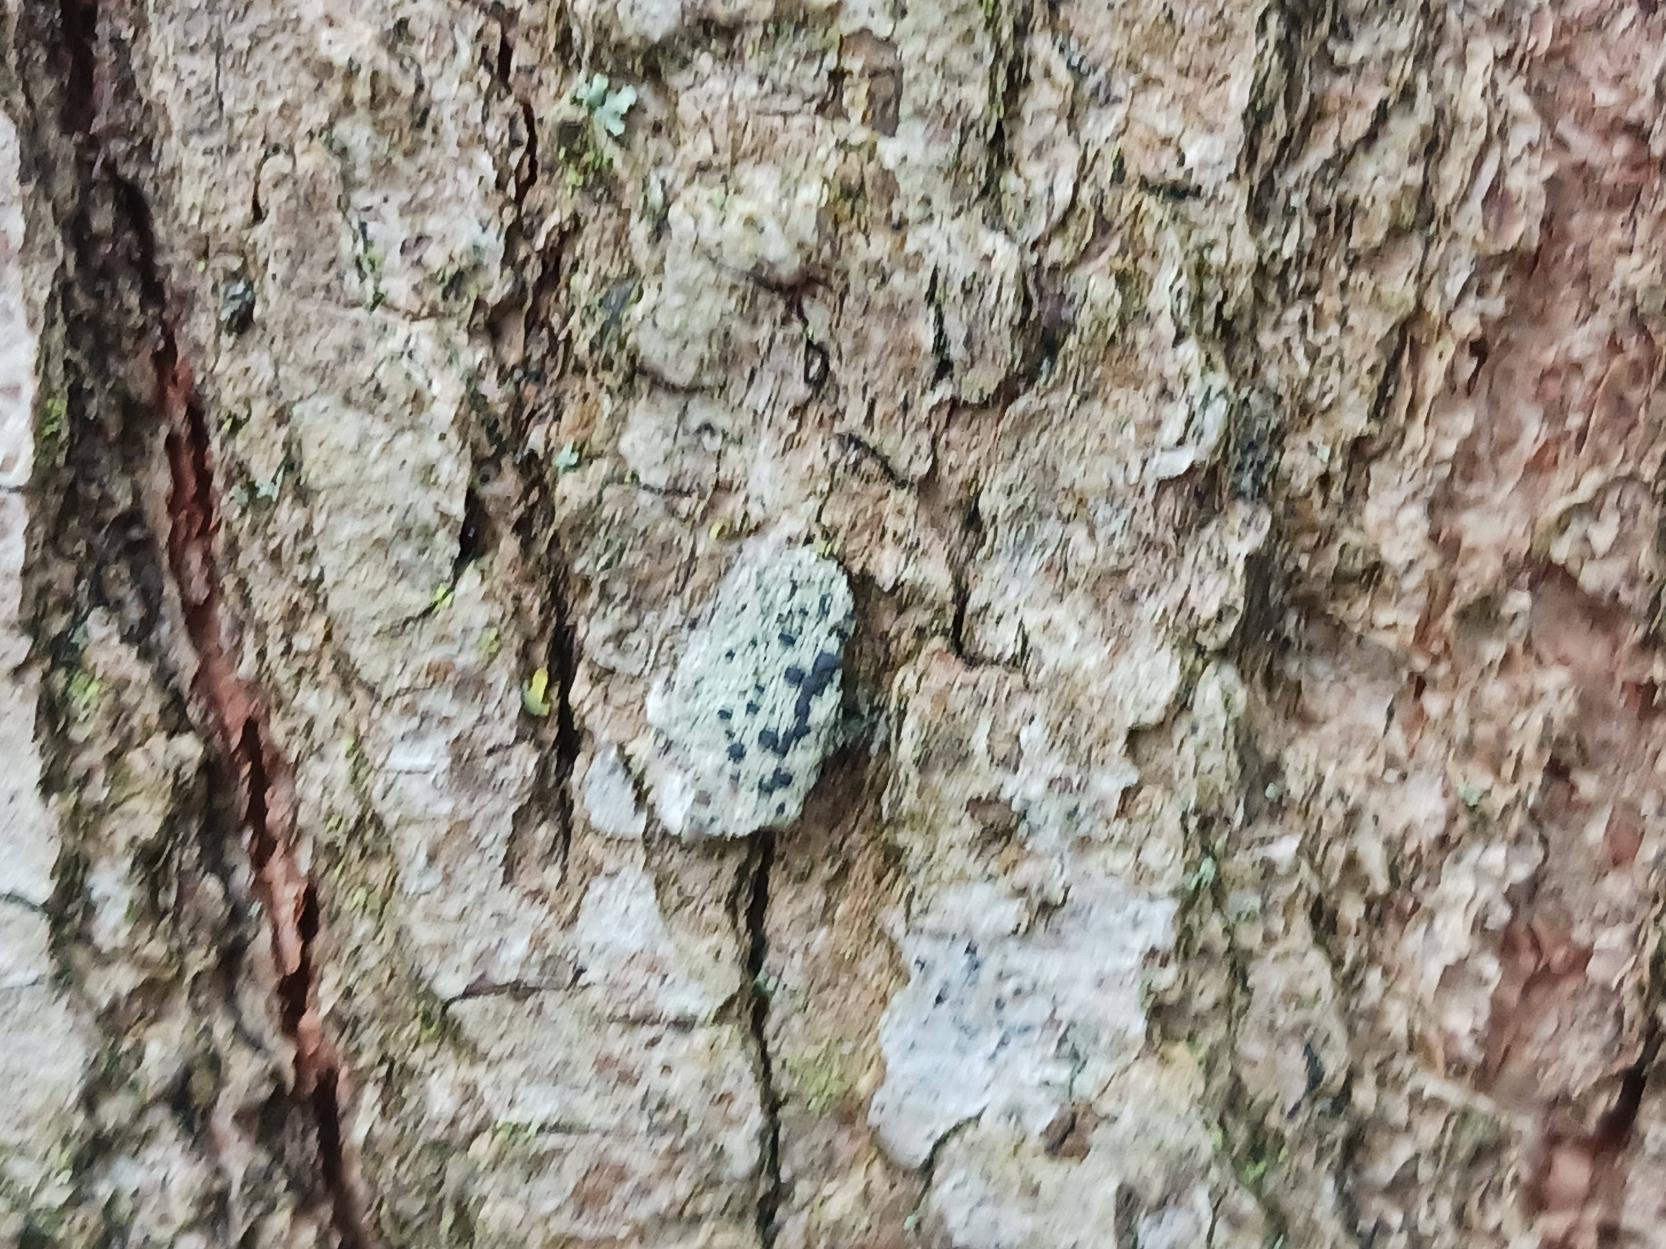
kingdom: Fungi
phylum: Ascomycota
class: Lecanoromycetes
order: Lecanorales
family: Lecanoraceae
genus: Lecidella
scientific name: Lecidella elaeochroma
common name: Grågrøn skivelav
